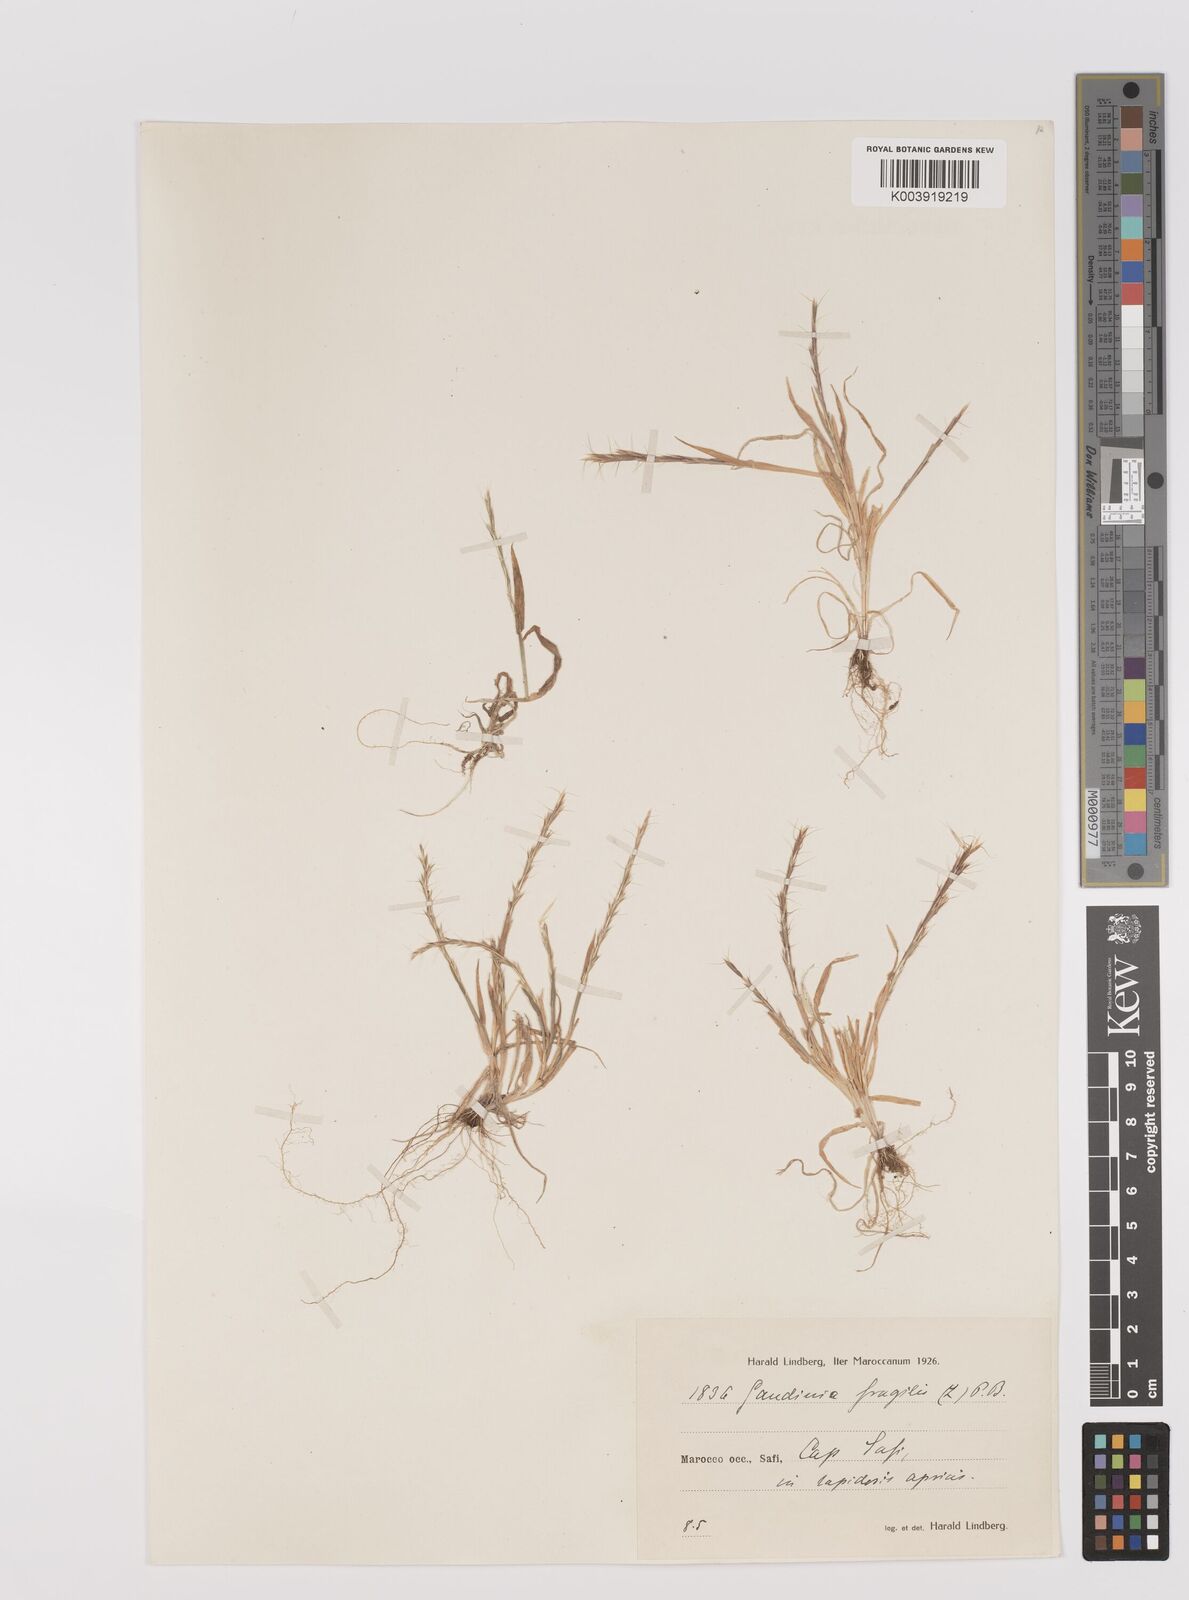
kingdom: Plantae
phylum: Tracheophyta
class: Liliopsida
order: Poales
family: Poaceae
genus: Gaudinia
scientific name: Gaudinia fragilis
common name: French oat-grass
